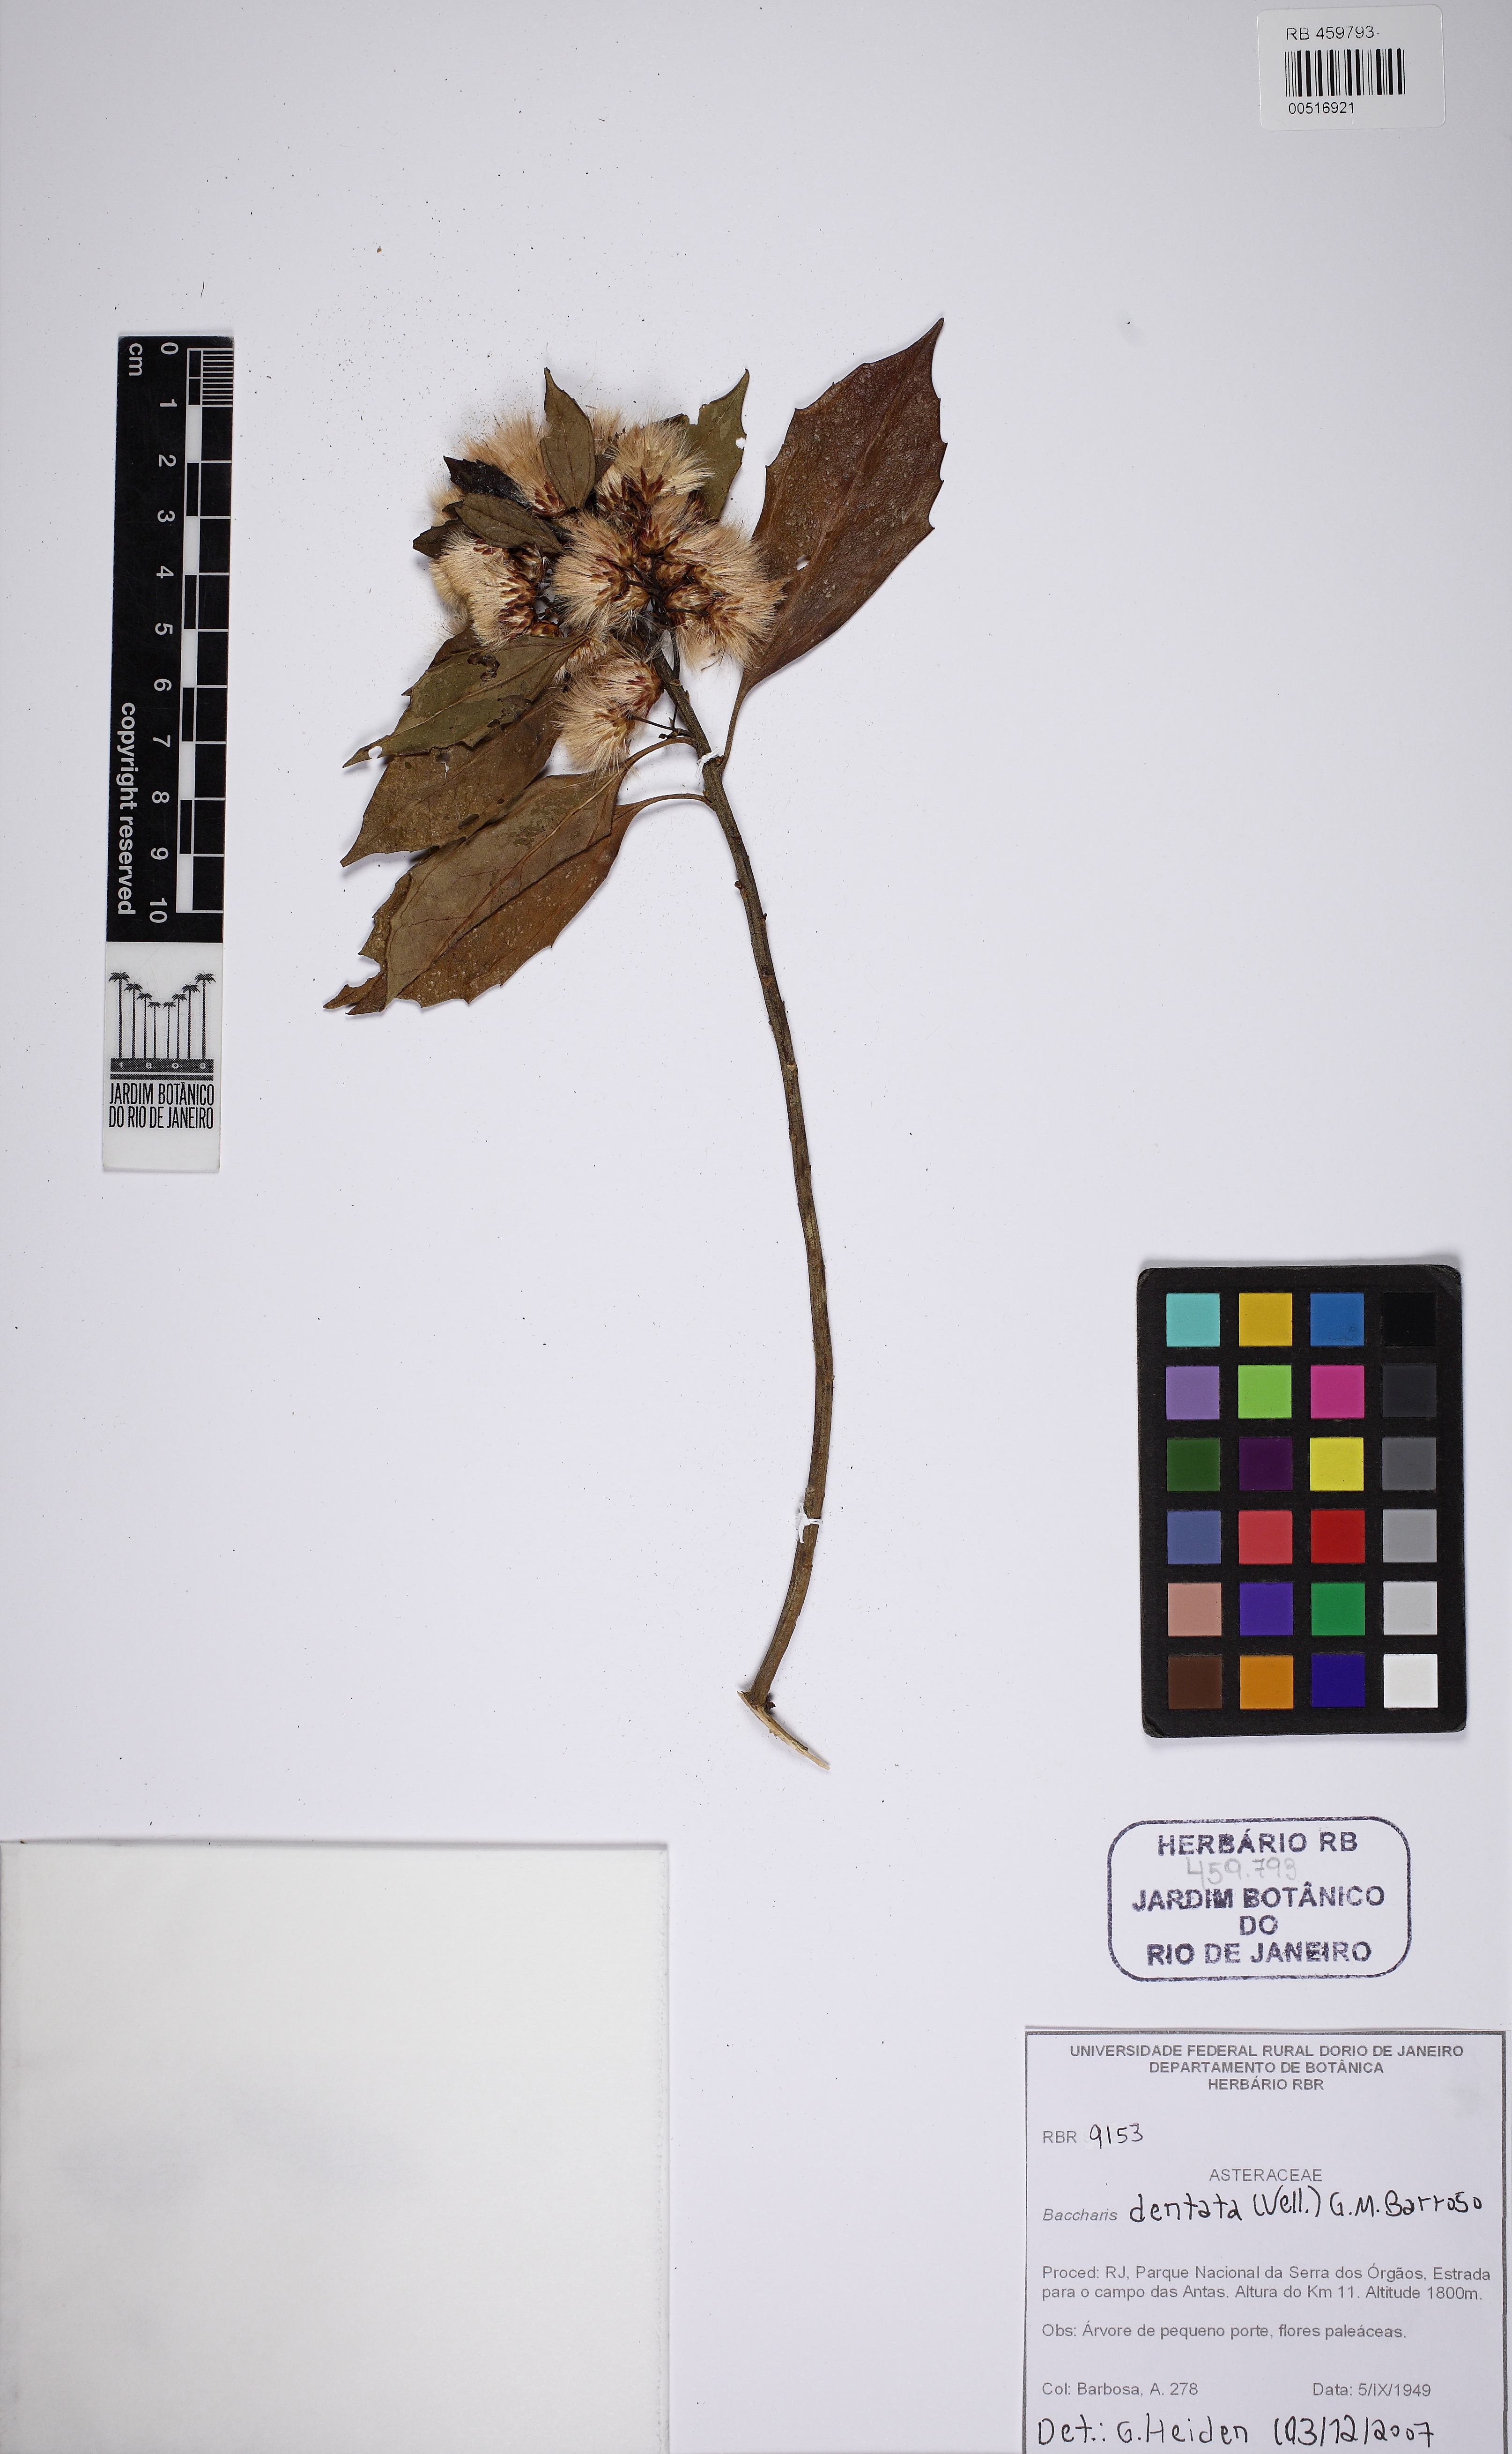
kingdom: Plantae
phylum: Tracheophyta
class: Magnoliopsida
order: Asterales
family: Asteraceae
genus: Baccharis
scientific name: Baccharis dentata
